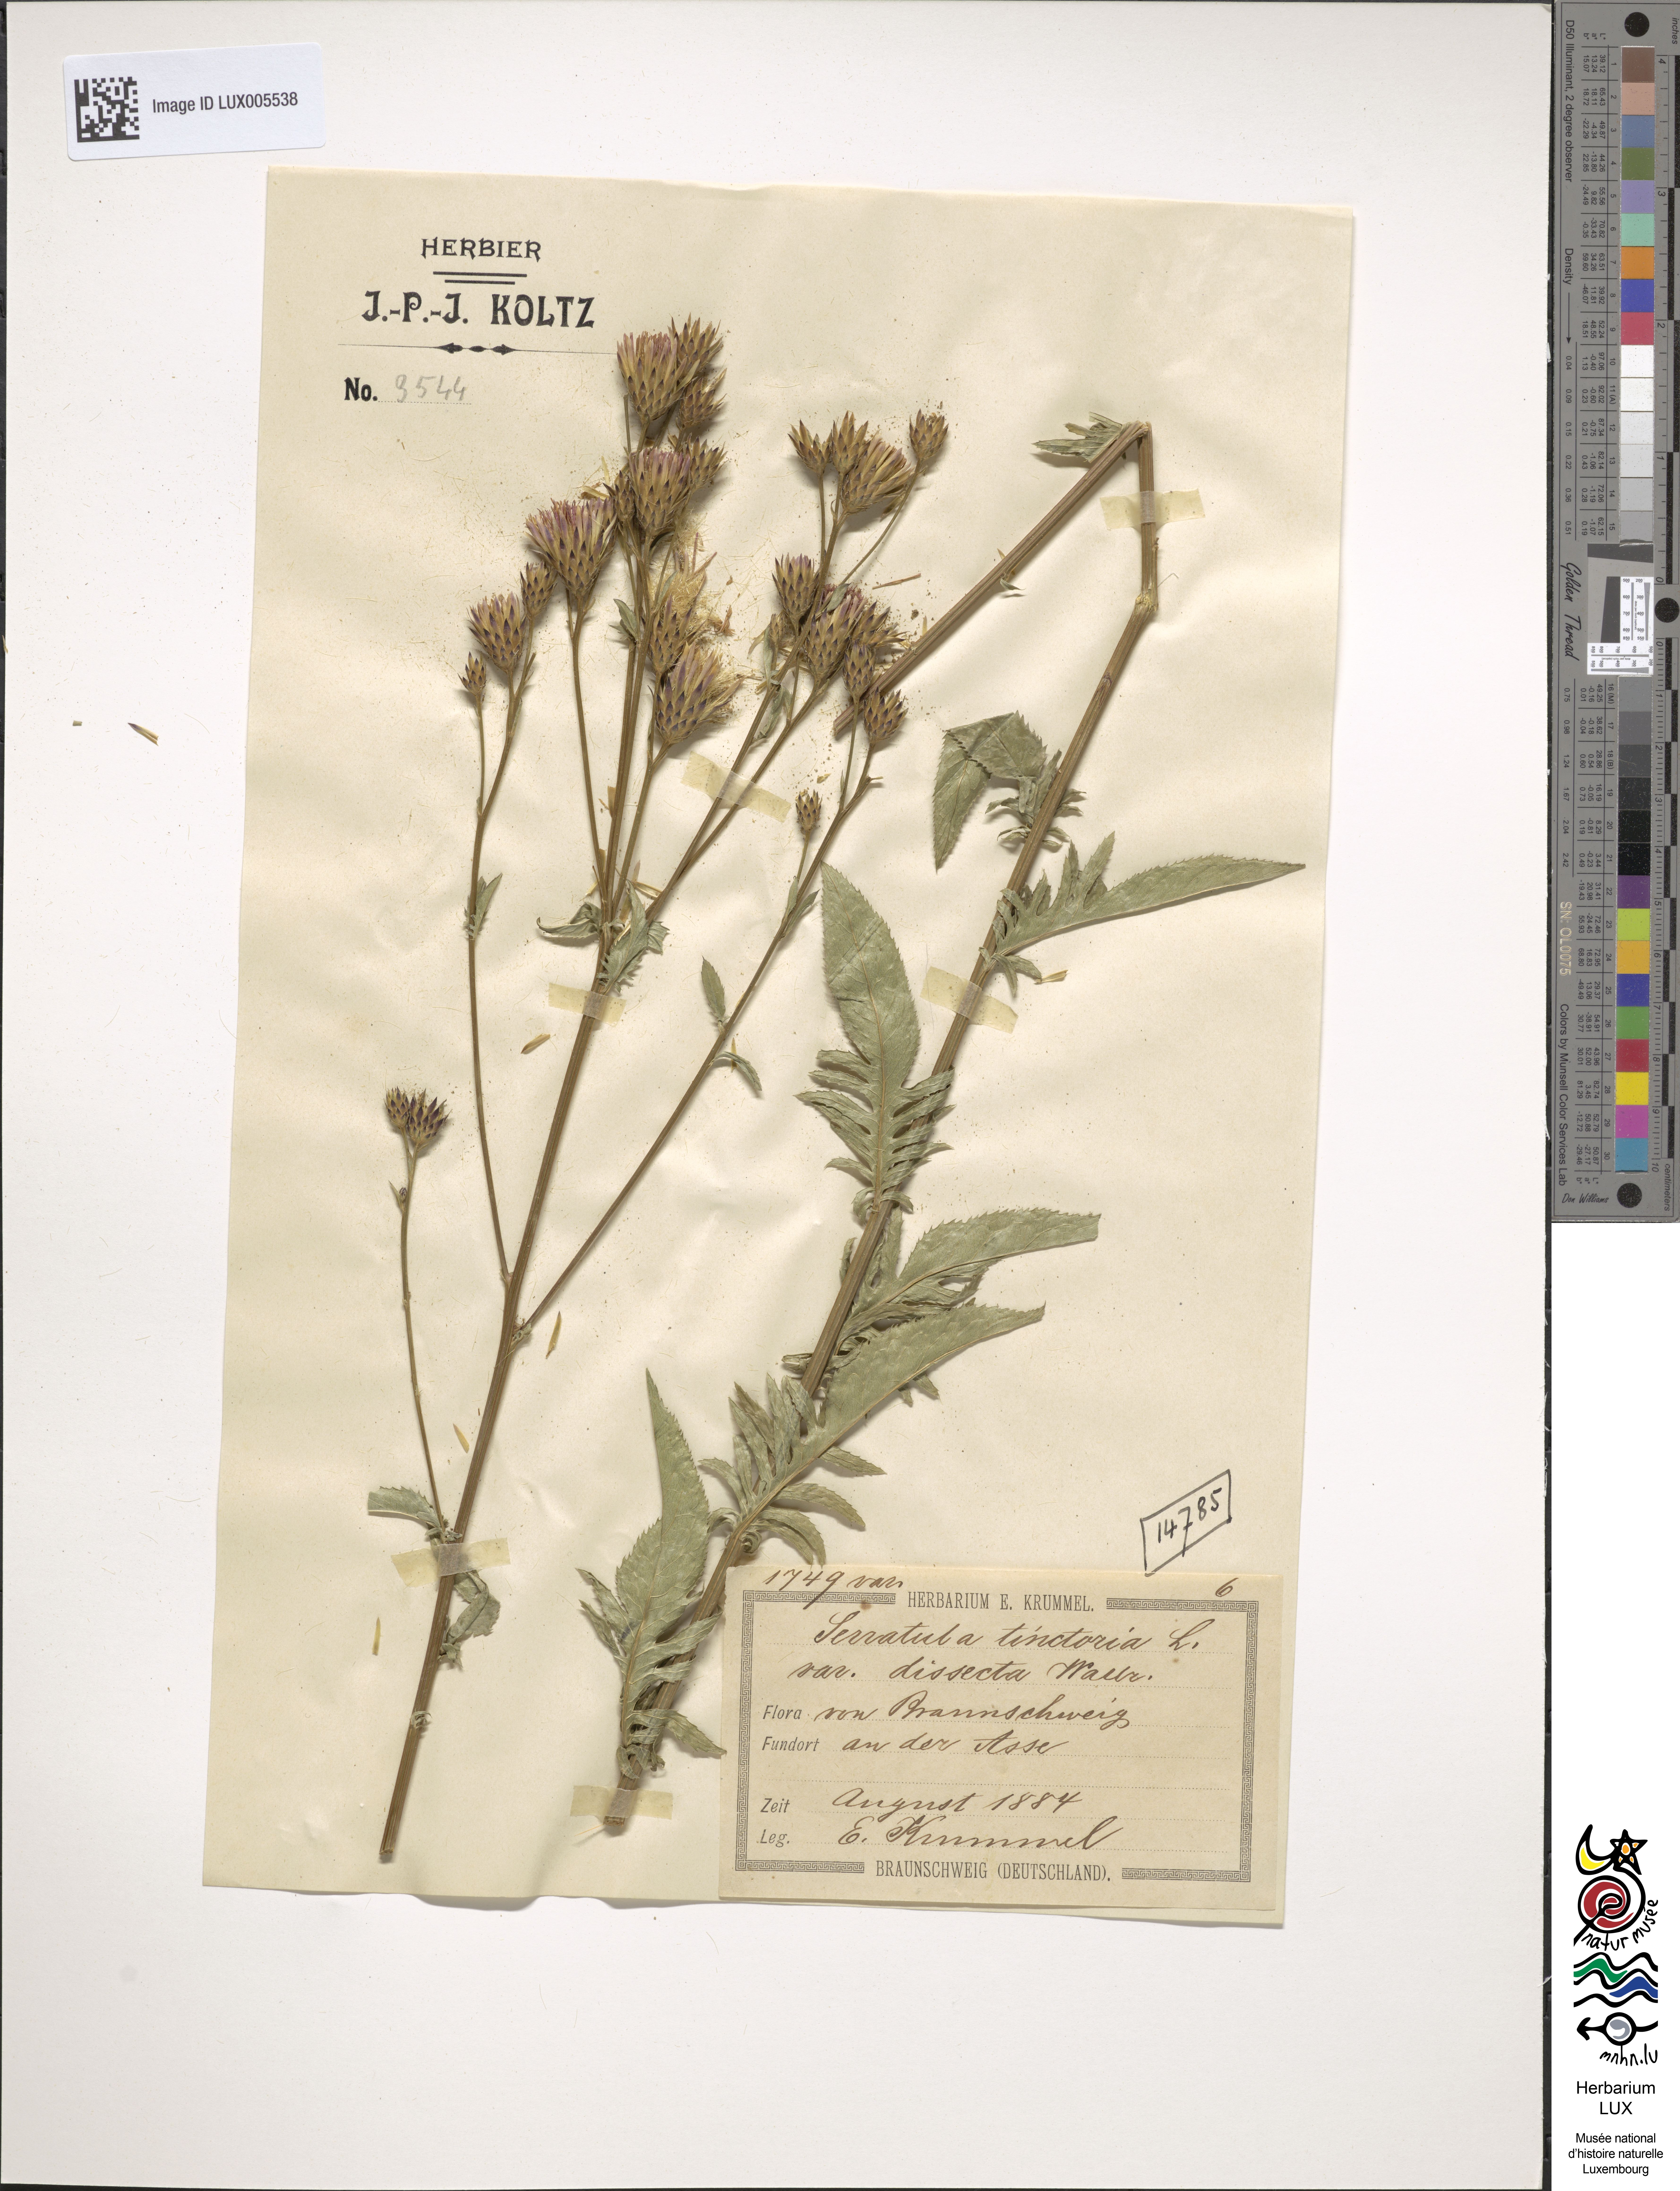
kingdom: Plantae
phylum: Tracheophyta
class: Magnoliopsida
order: Asterales
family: Asteraceae
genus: Serratula
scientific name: Serratula tinctoria
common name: Saw-wort
